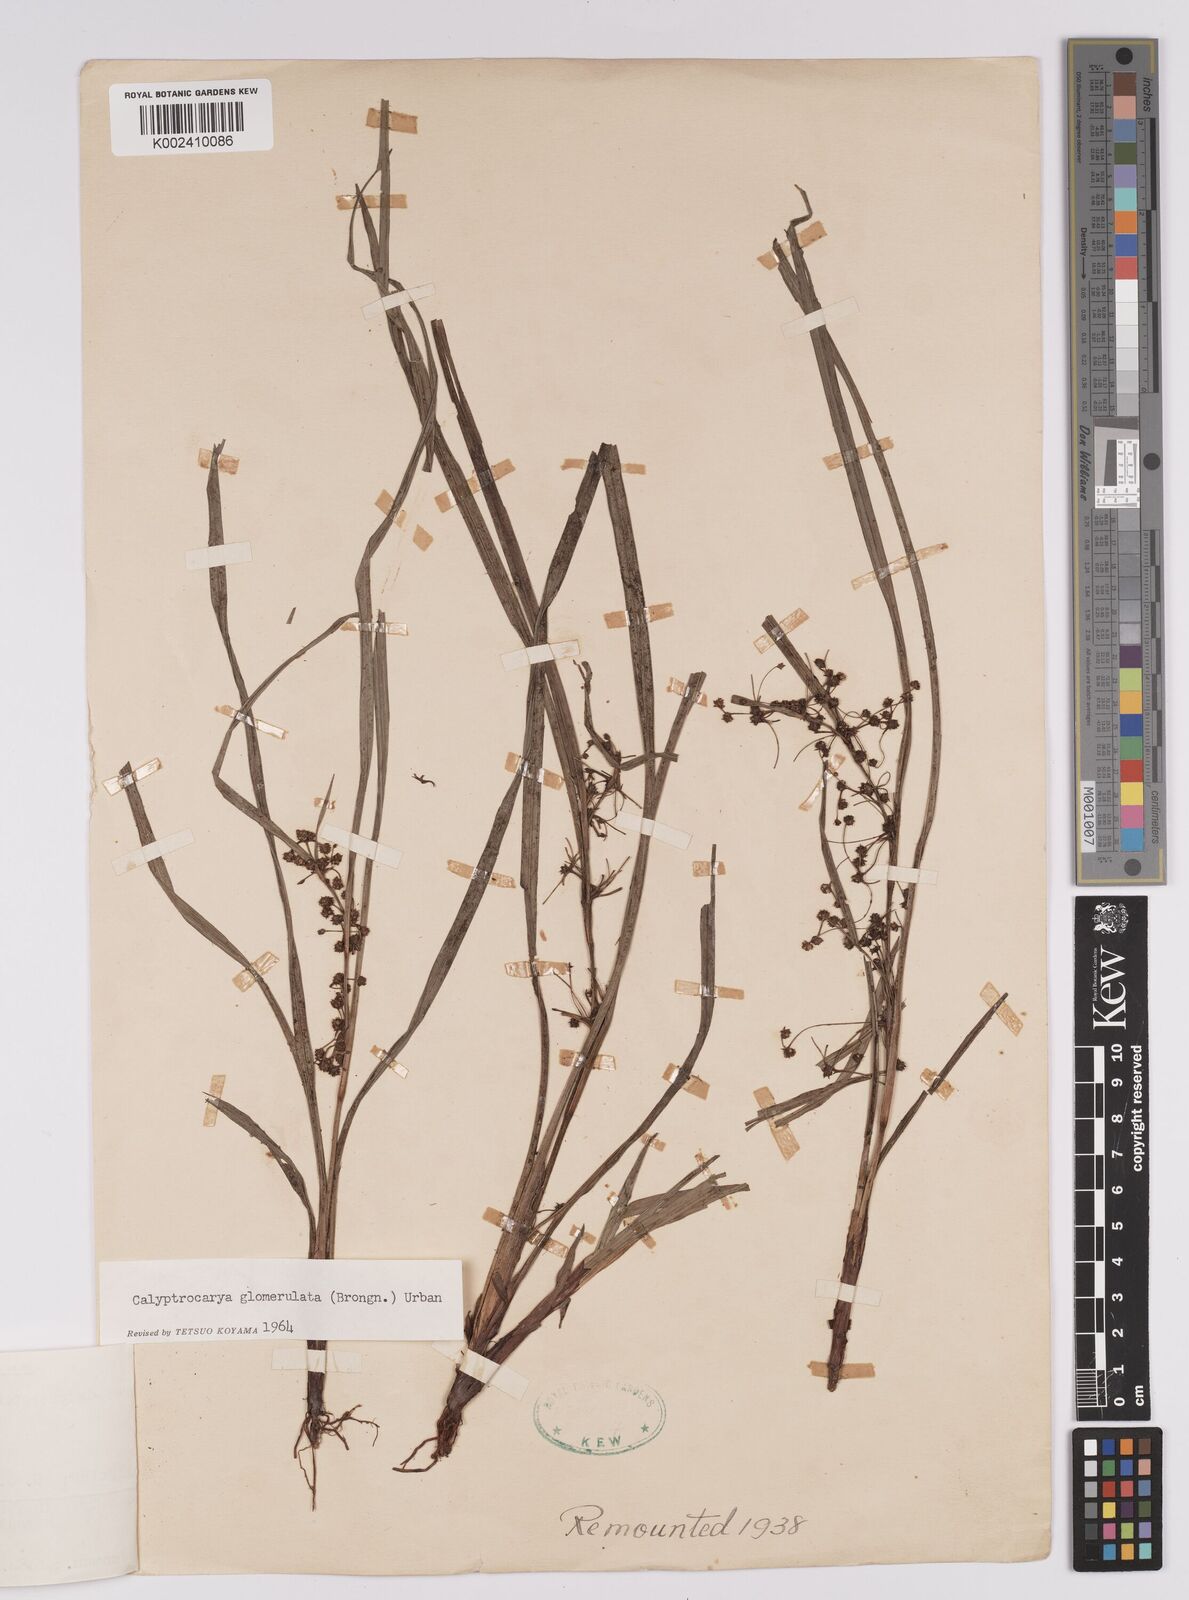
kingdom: Plantae
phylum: Tracheophyta
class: Liliopsida
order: Poales
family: Cyperaceae
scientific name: Cyperaceae
